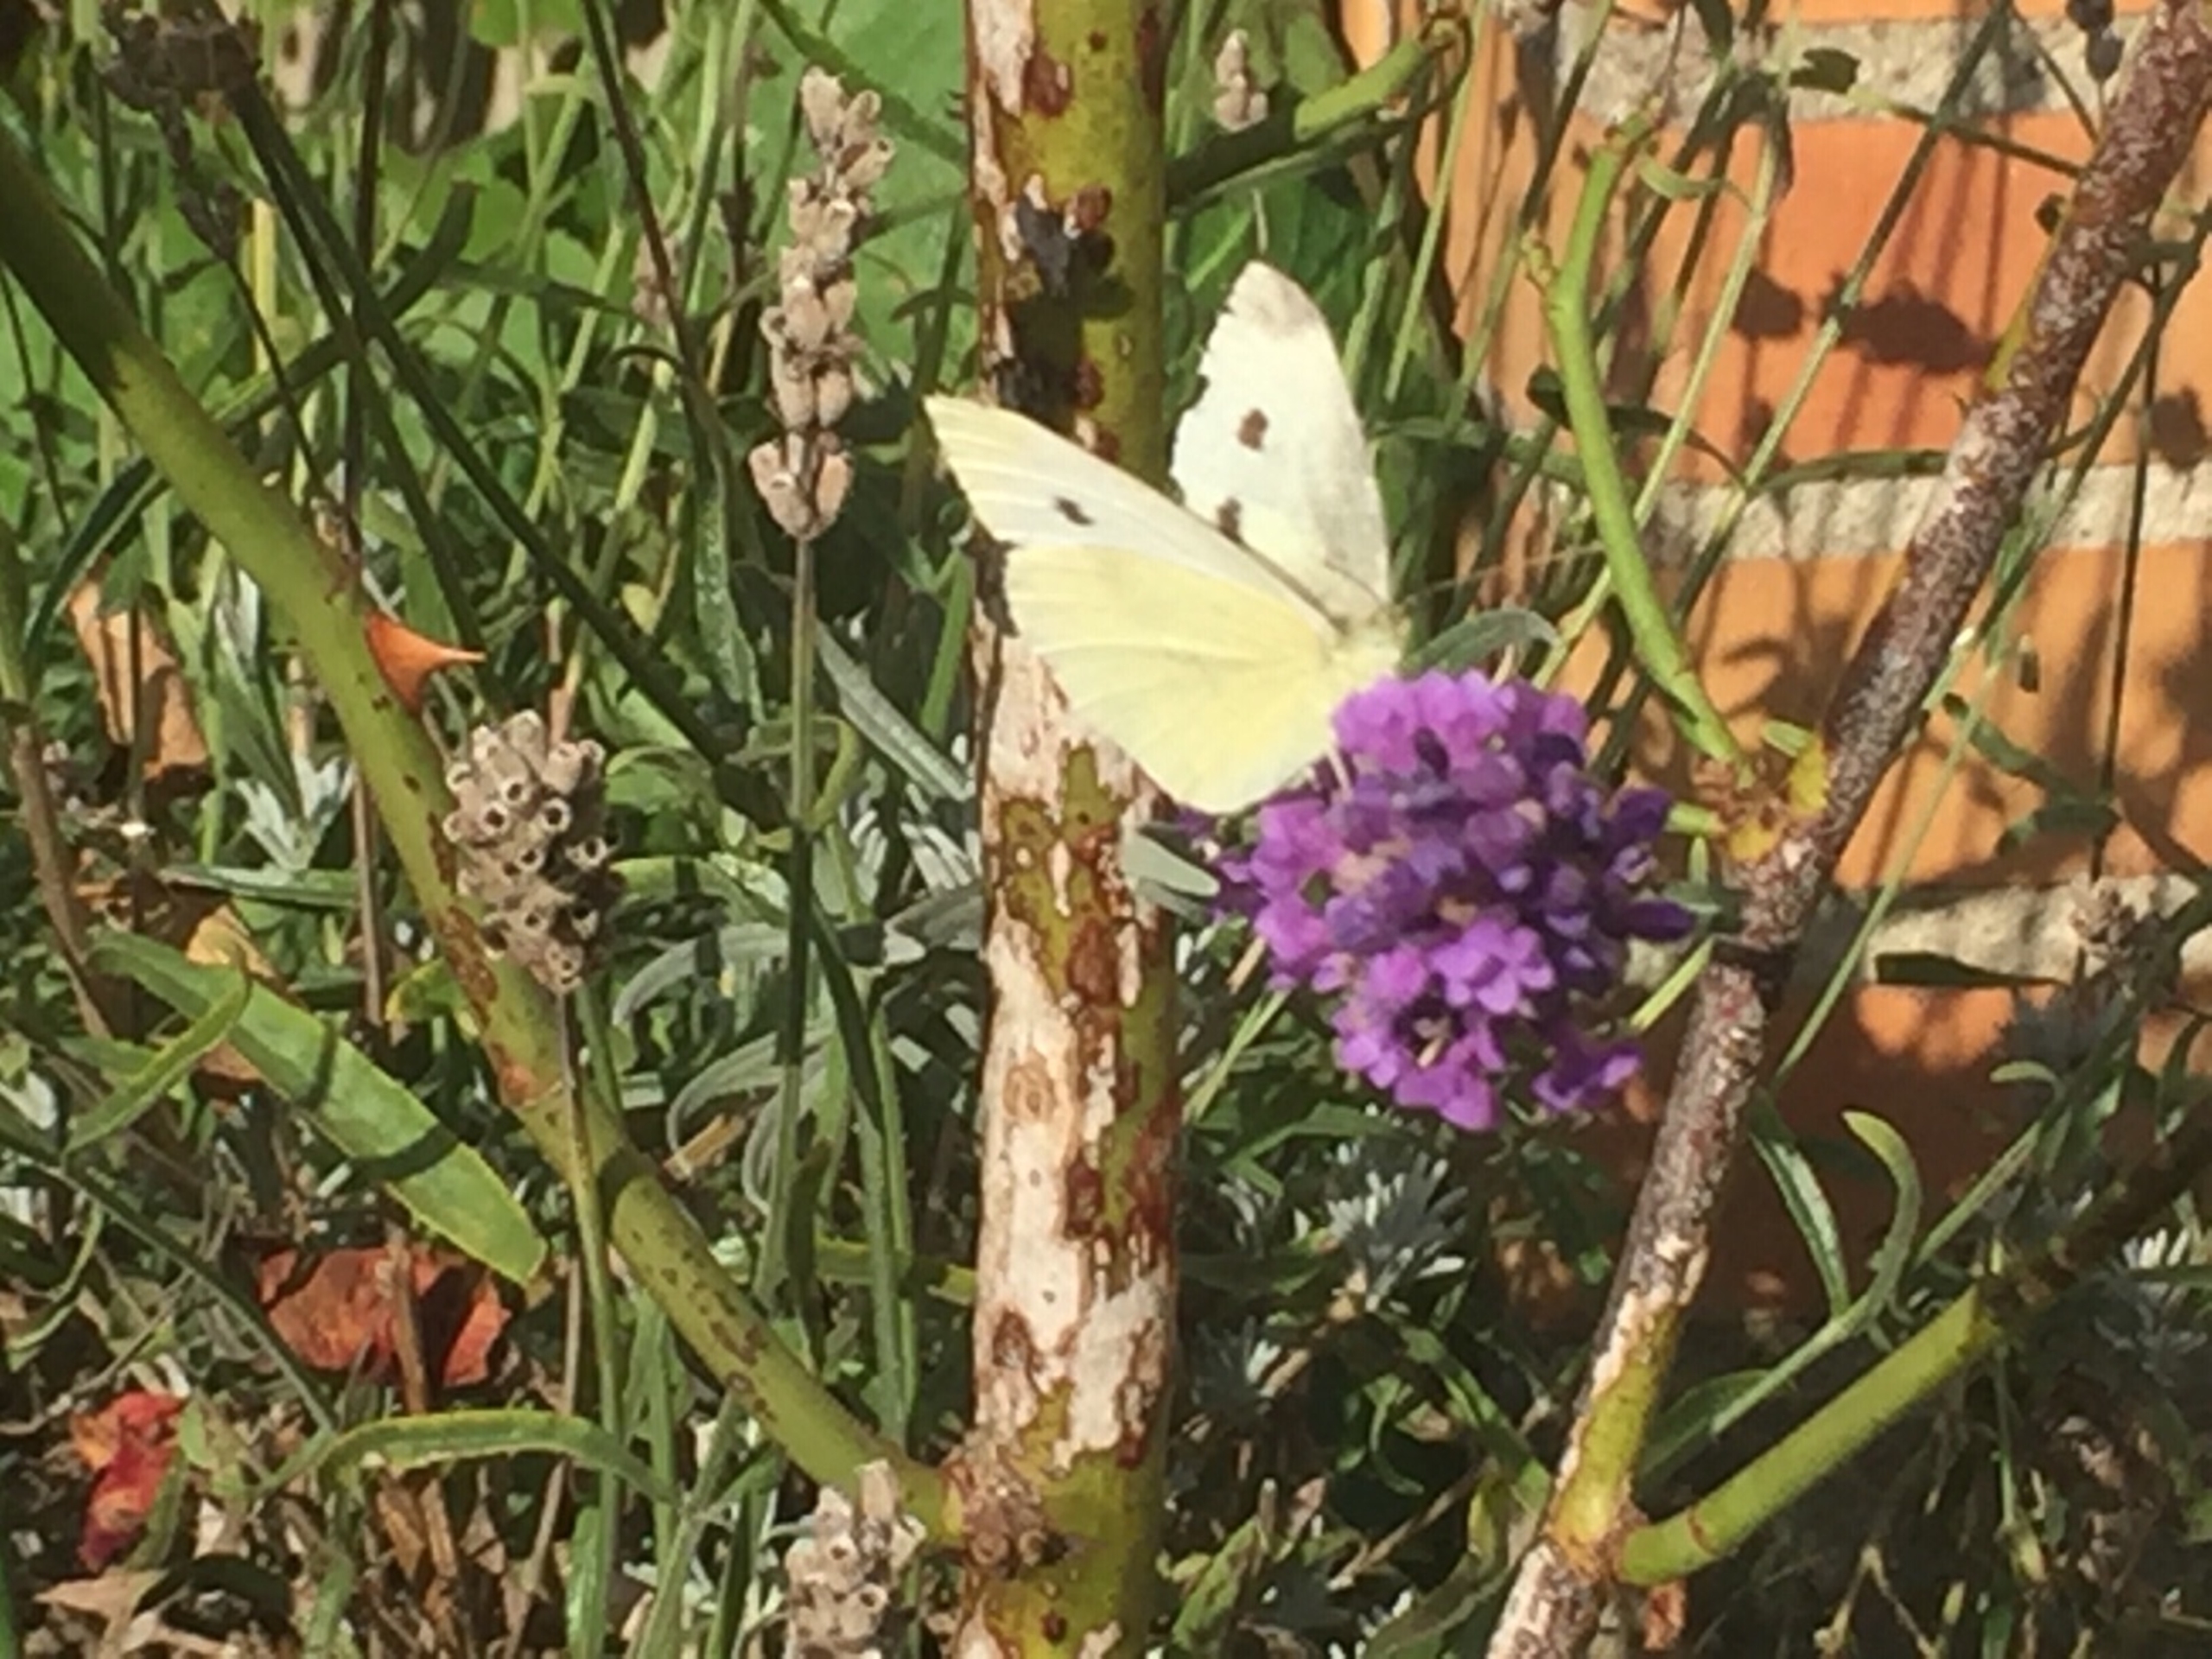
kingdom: Animalia
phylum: Arthropoda
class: Insecta
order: Lepidoptera
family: Pieridae
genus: Pieris
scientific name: Pieris rapae
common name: Lille kålsommerfugl
